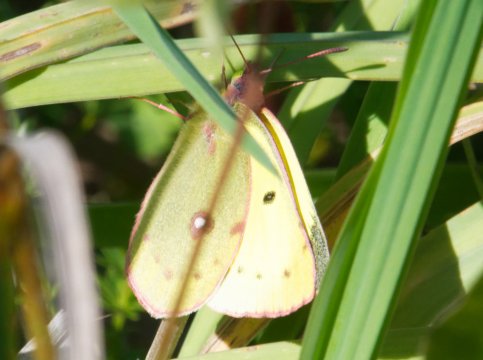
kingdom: Animalia
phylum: Arthropoda
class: Insecta
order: Lepidoptera
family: Pieridae
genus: Colias
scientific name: Colias philodice
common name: Clouded Sulphur
